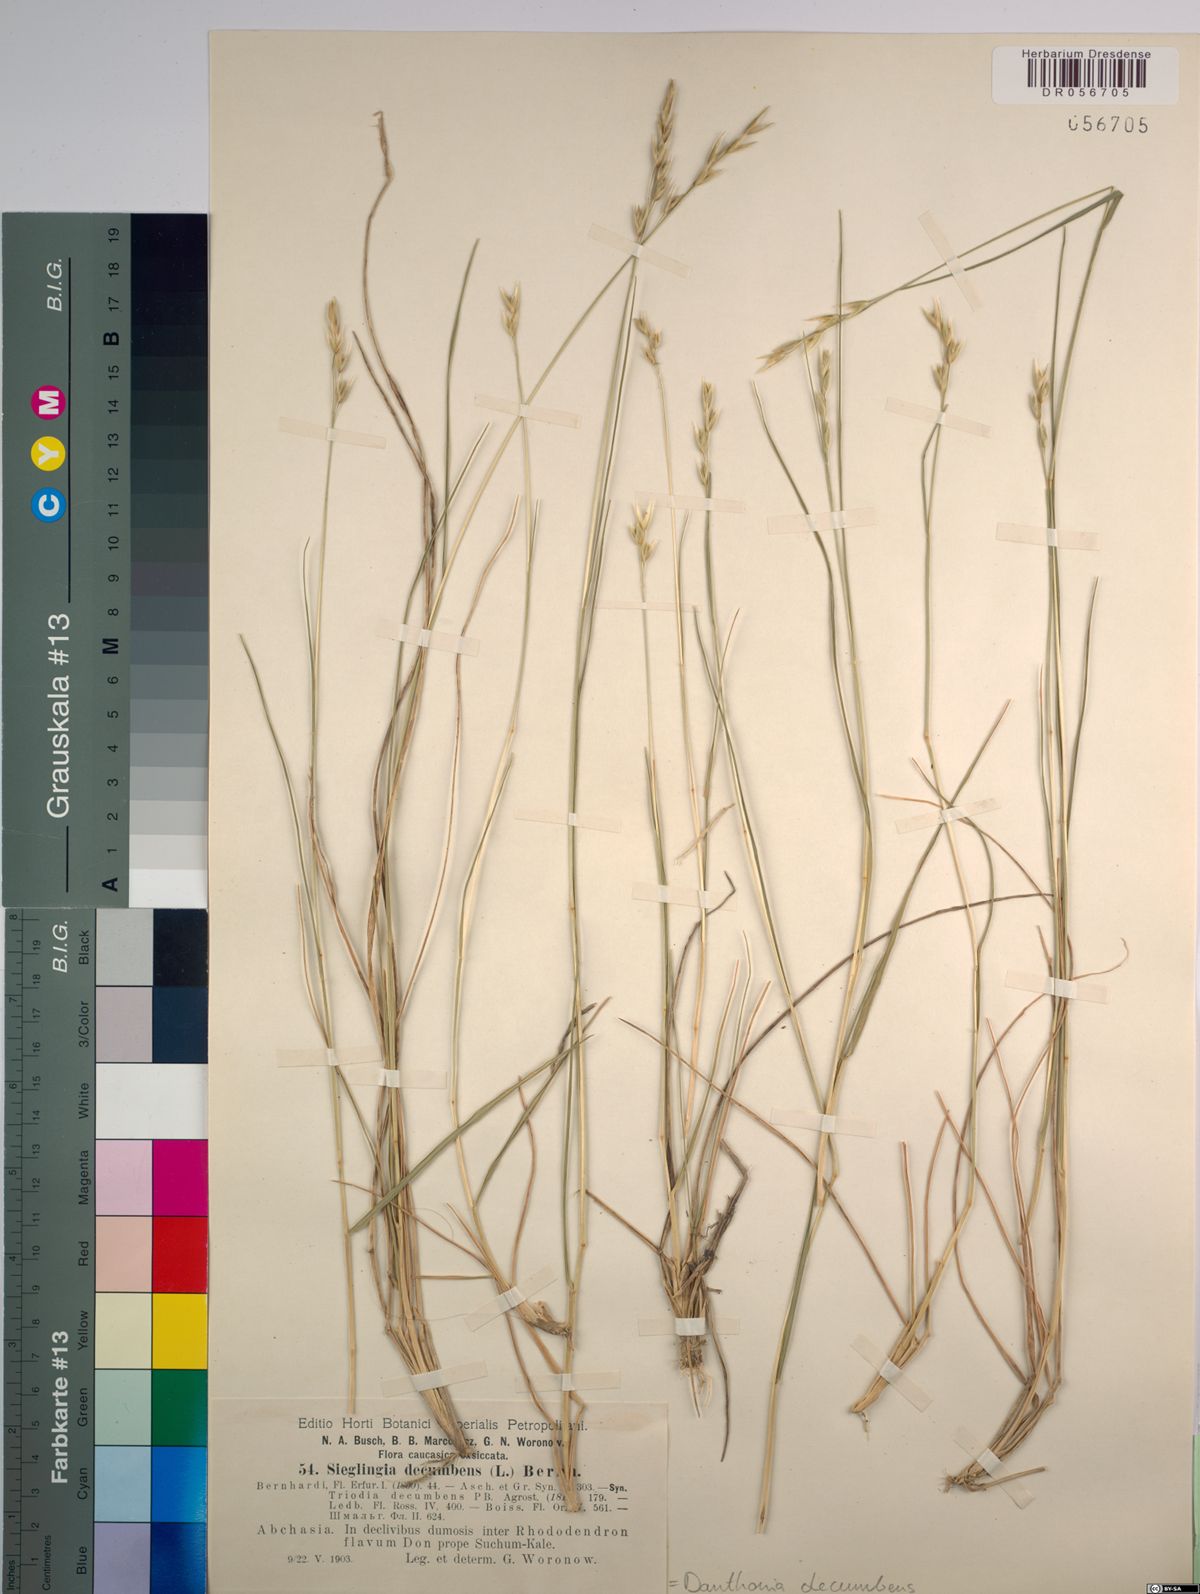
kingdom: Plantae
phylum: Tracheophyta
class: Liliopsida
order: Poales
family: Poaceae
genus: Danthonia
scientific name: Danthonia decumbens
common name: Common heathgrass
